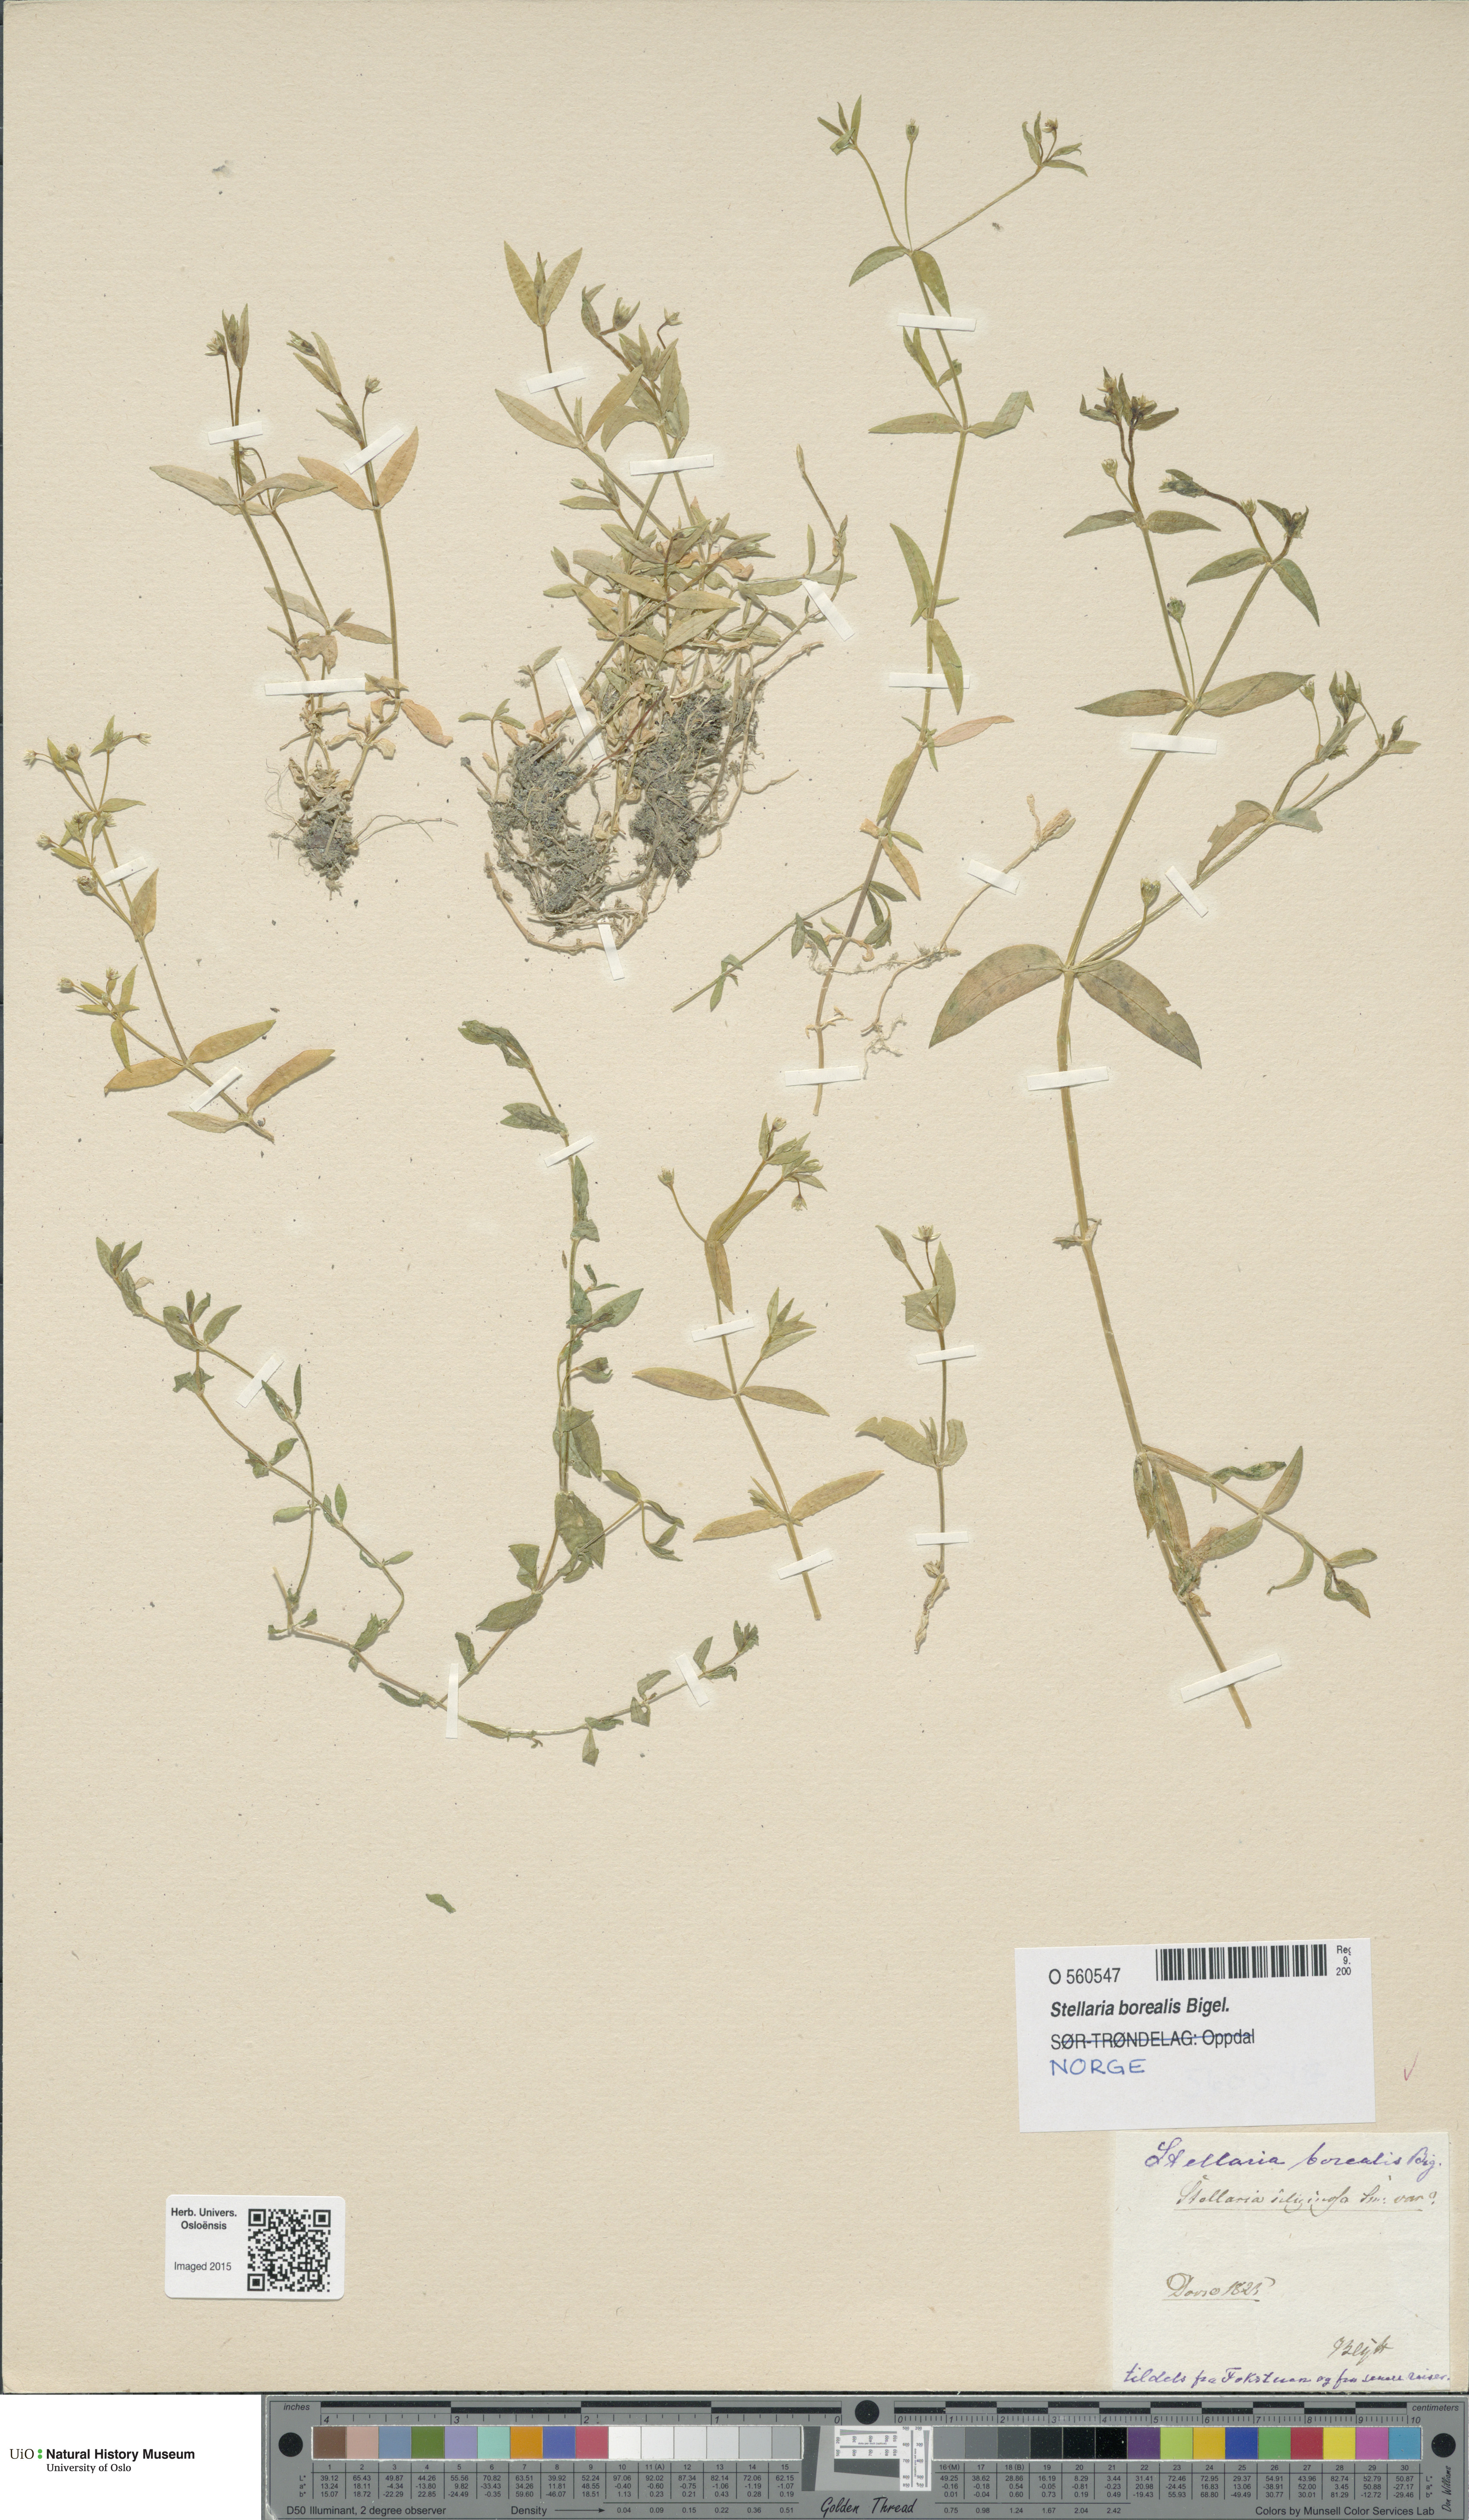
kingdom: Plantae
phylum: Tracheophyta
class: Magnoliopsida
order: Caryophyllales
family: Caryophyllaceae
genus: Stellaria
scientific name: Stellaria borealis
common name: Boreal starwort
